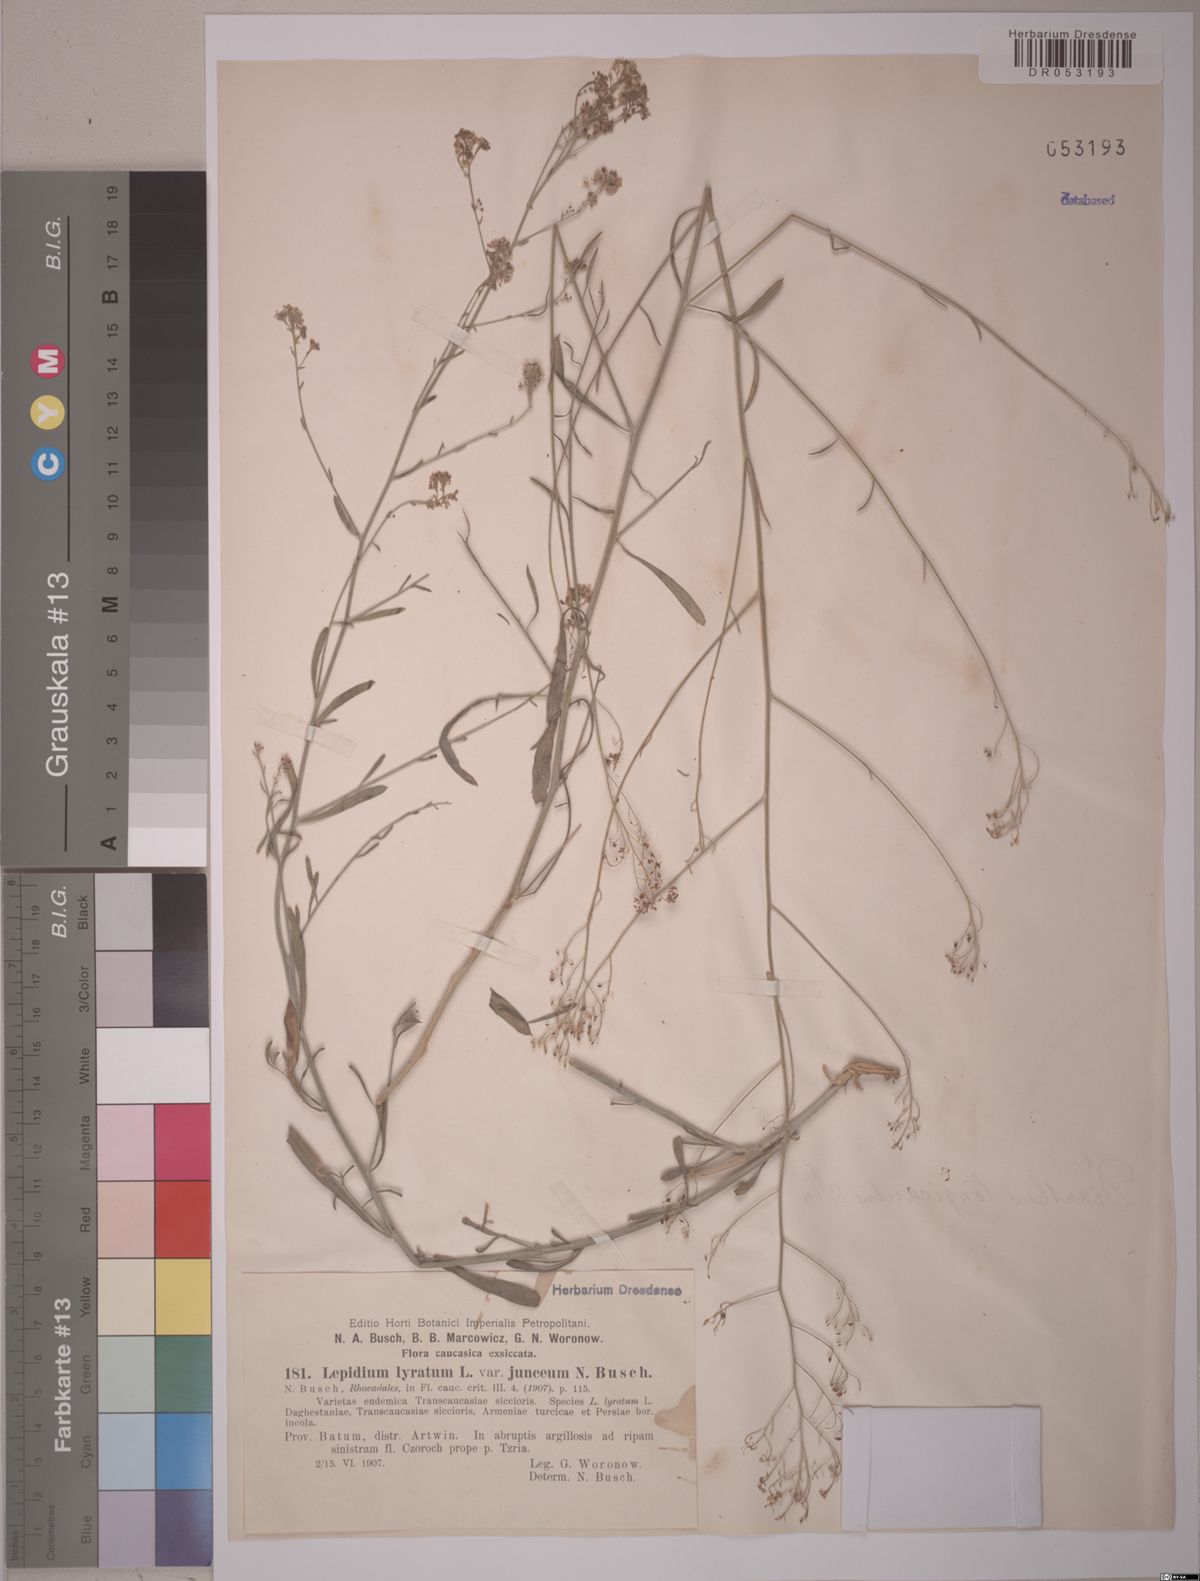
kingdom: Plantae
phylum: Tracheophyta
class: Magnoliopsida
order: Brassicales
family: Brassicaceae
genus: Lepidium
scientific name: Lepidium lyratum
